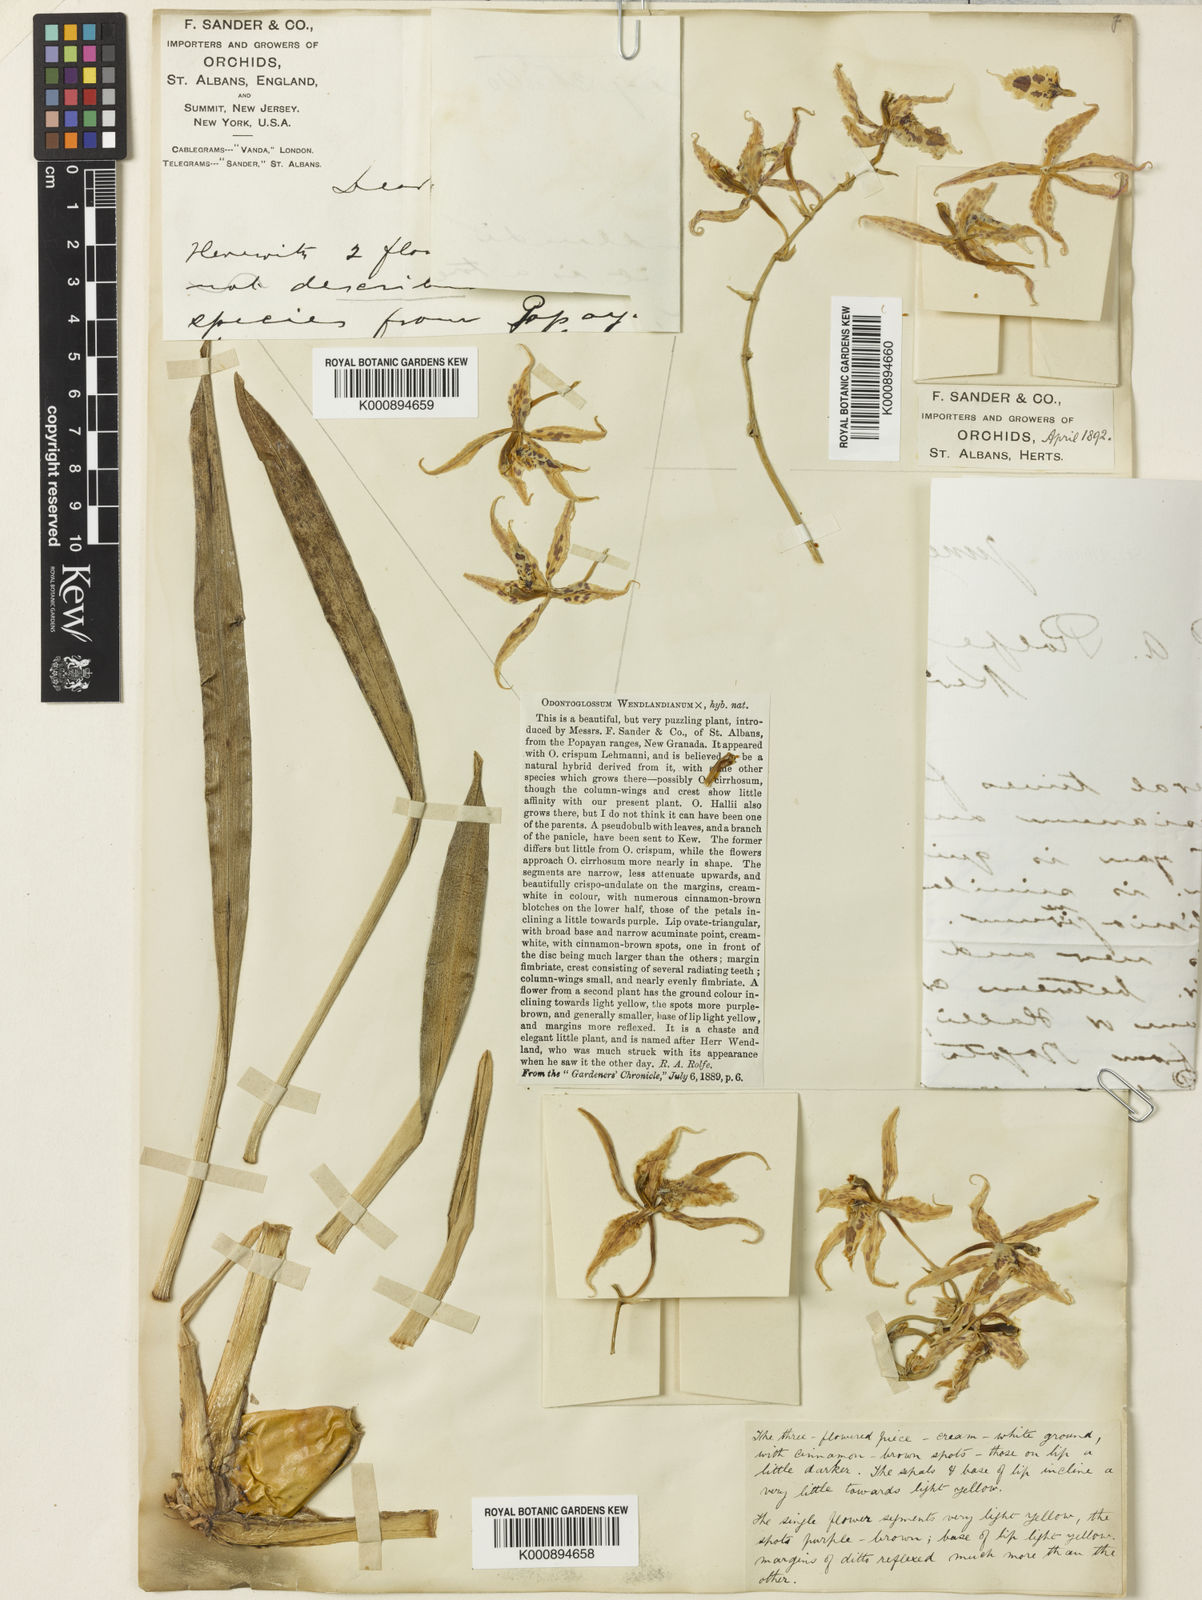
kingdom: Plantae
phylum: Tracheophyta
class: Liliopsida
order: Asparagales
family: Orchidaceae
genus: Oncidium
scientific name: Oncidium Odontoglossum wendlandianum
